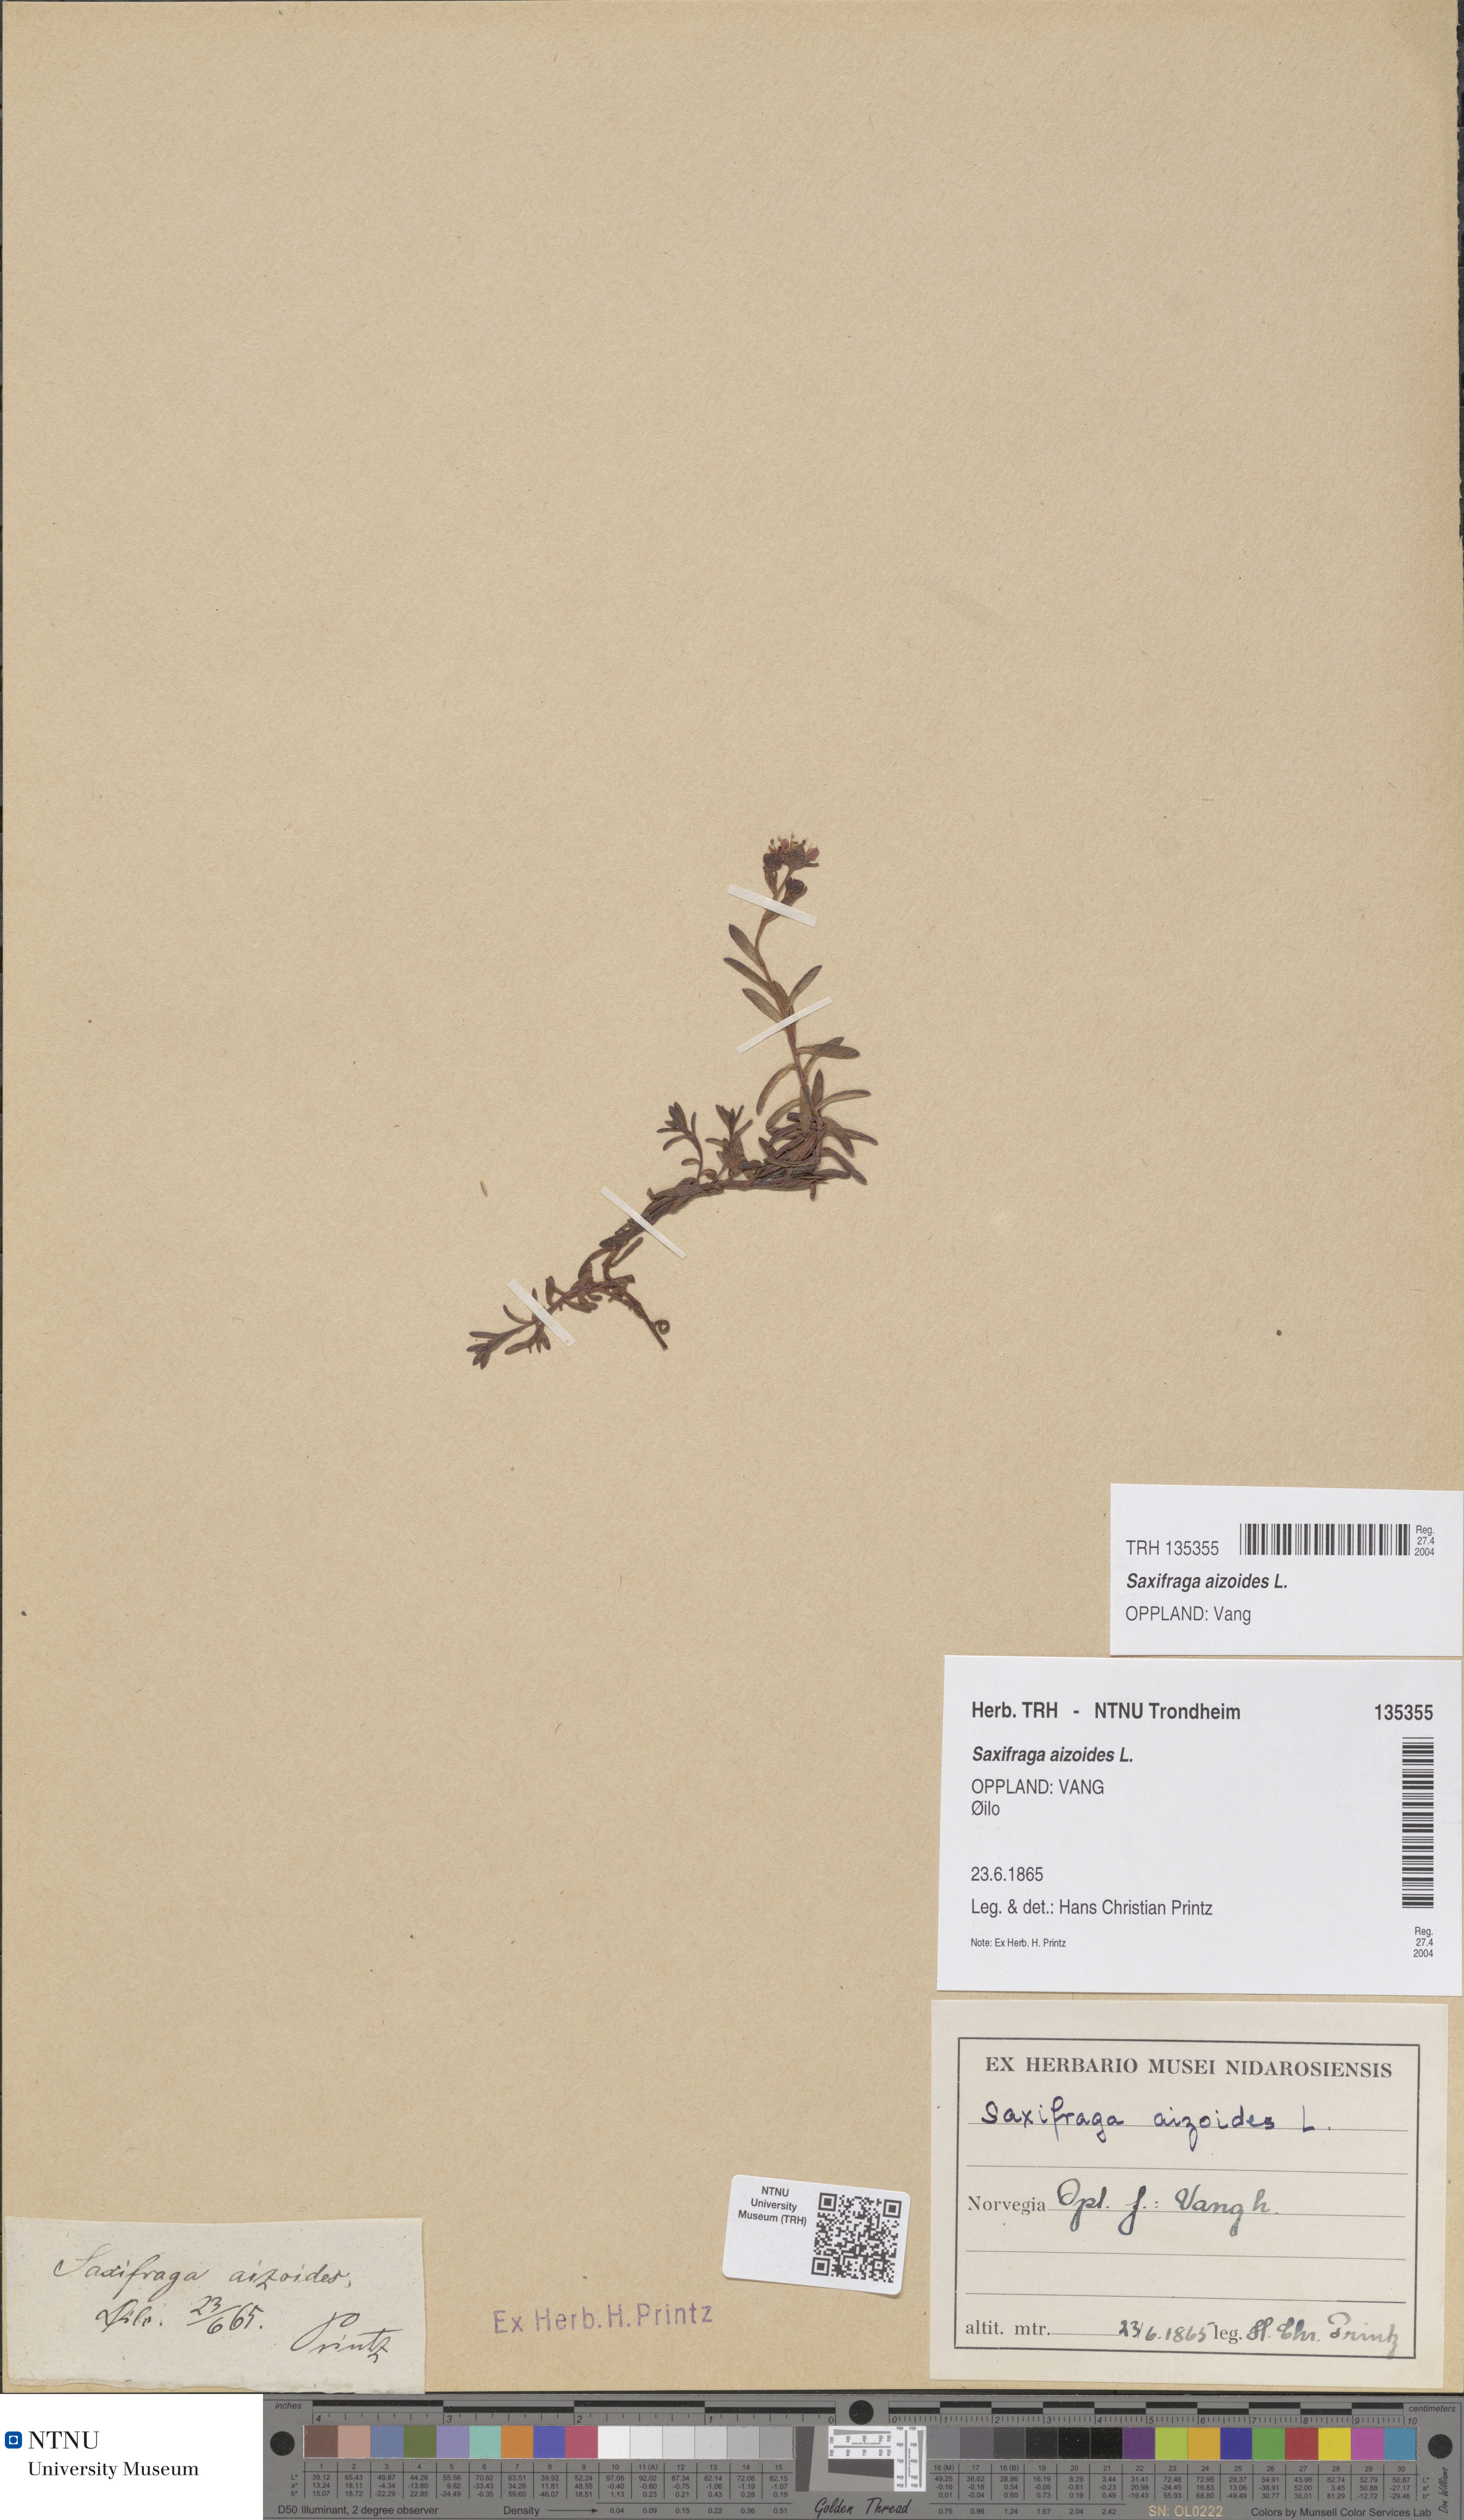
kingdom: Plantae
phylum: Tracheophyta
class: Magnoliopsida
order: Saxifragales
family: Saxifragaceae
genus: Saxifraga
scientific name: Saxifraga aizoides
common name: Yellow mountain saxifrage
